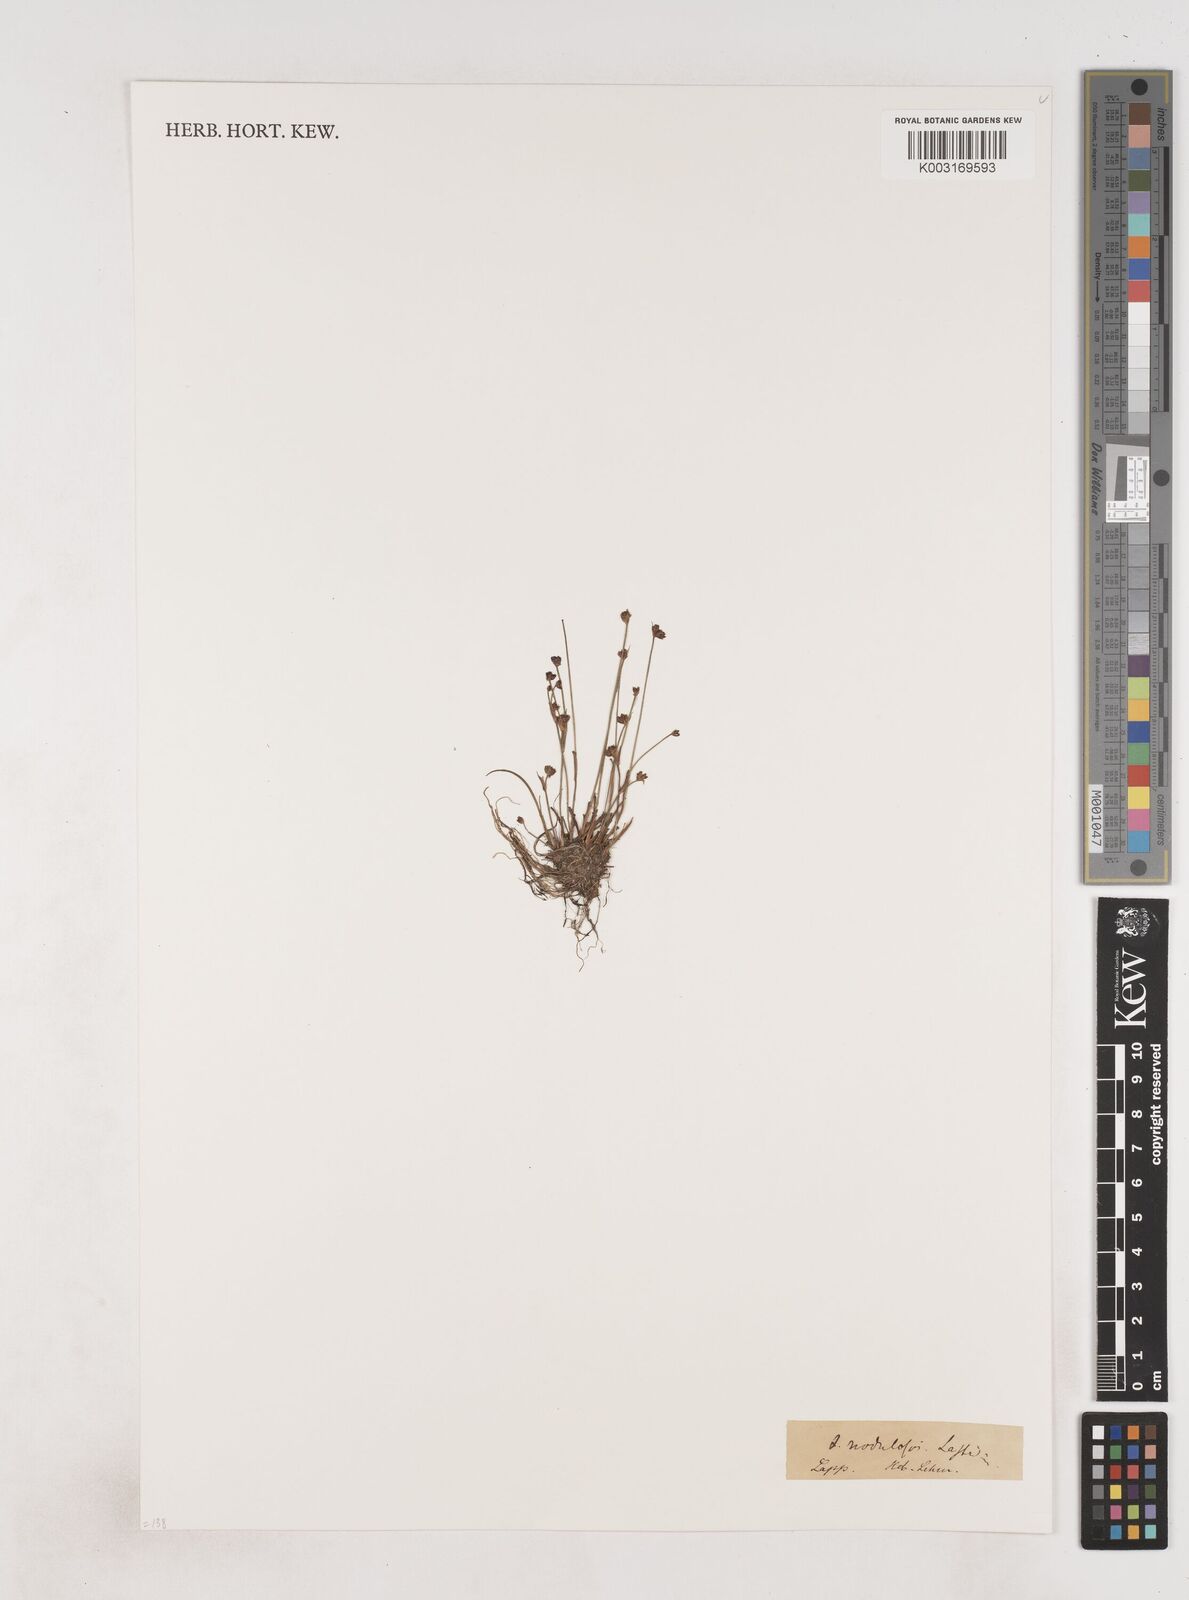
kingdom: Plantae
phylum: Tracheophyta
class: Liliopsida
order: Poales
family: Juncaceae
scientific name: Juncaceae
